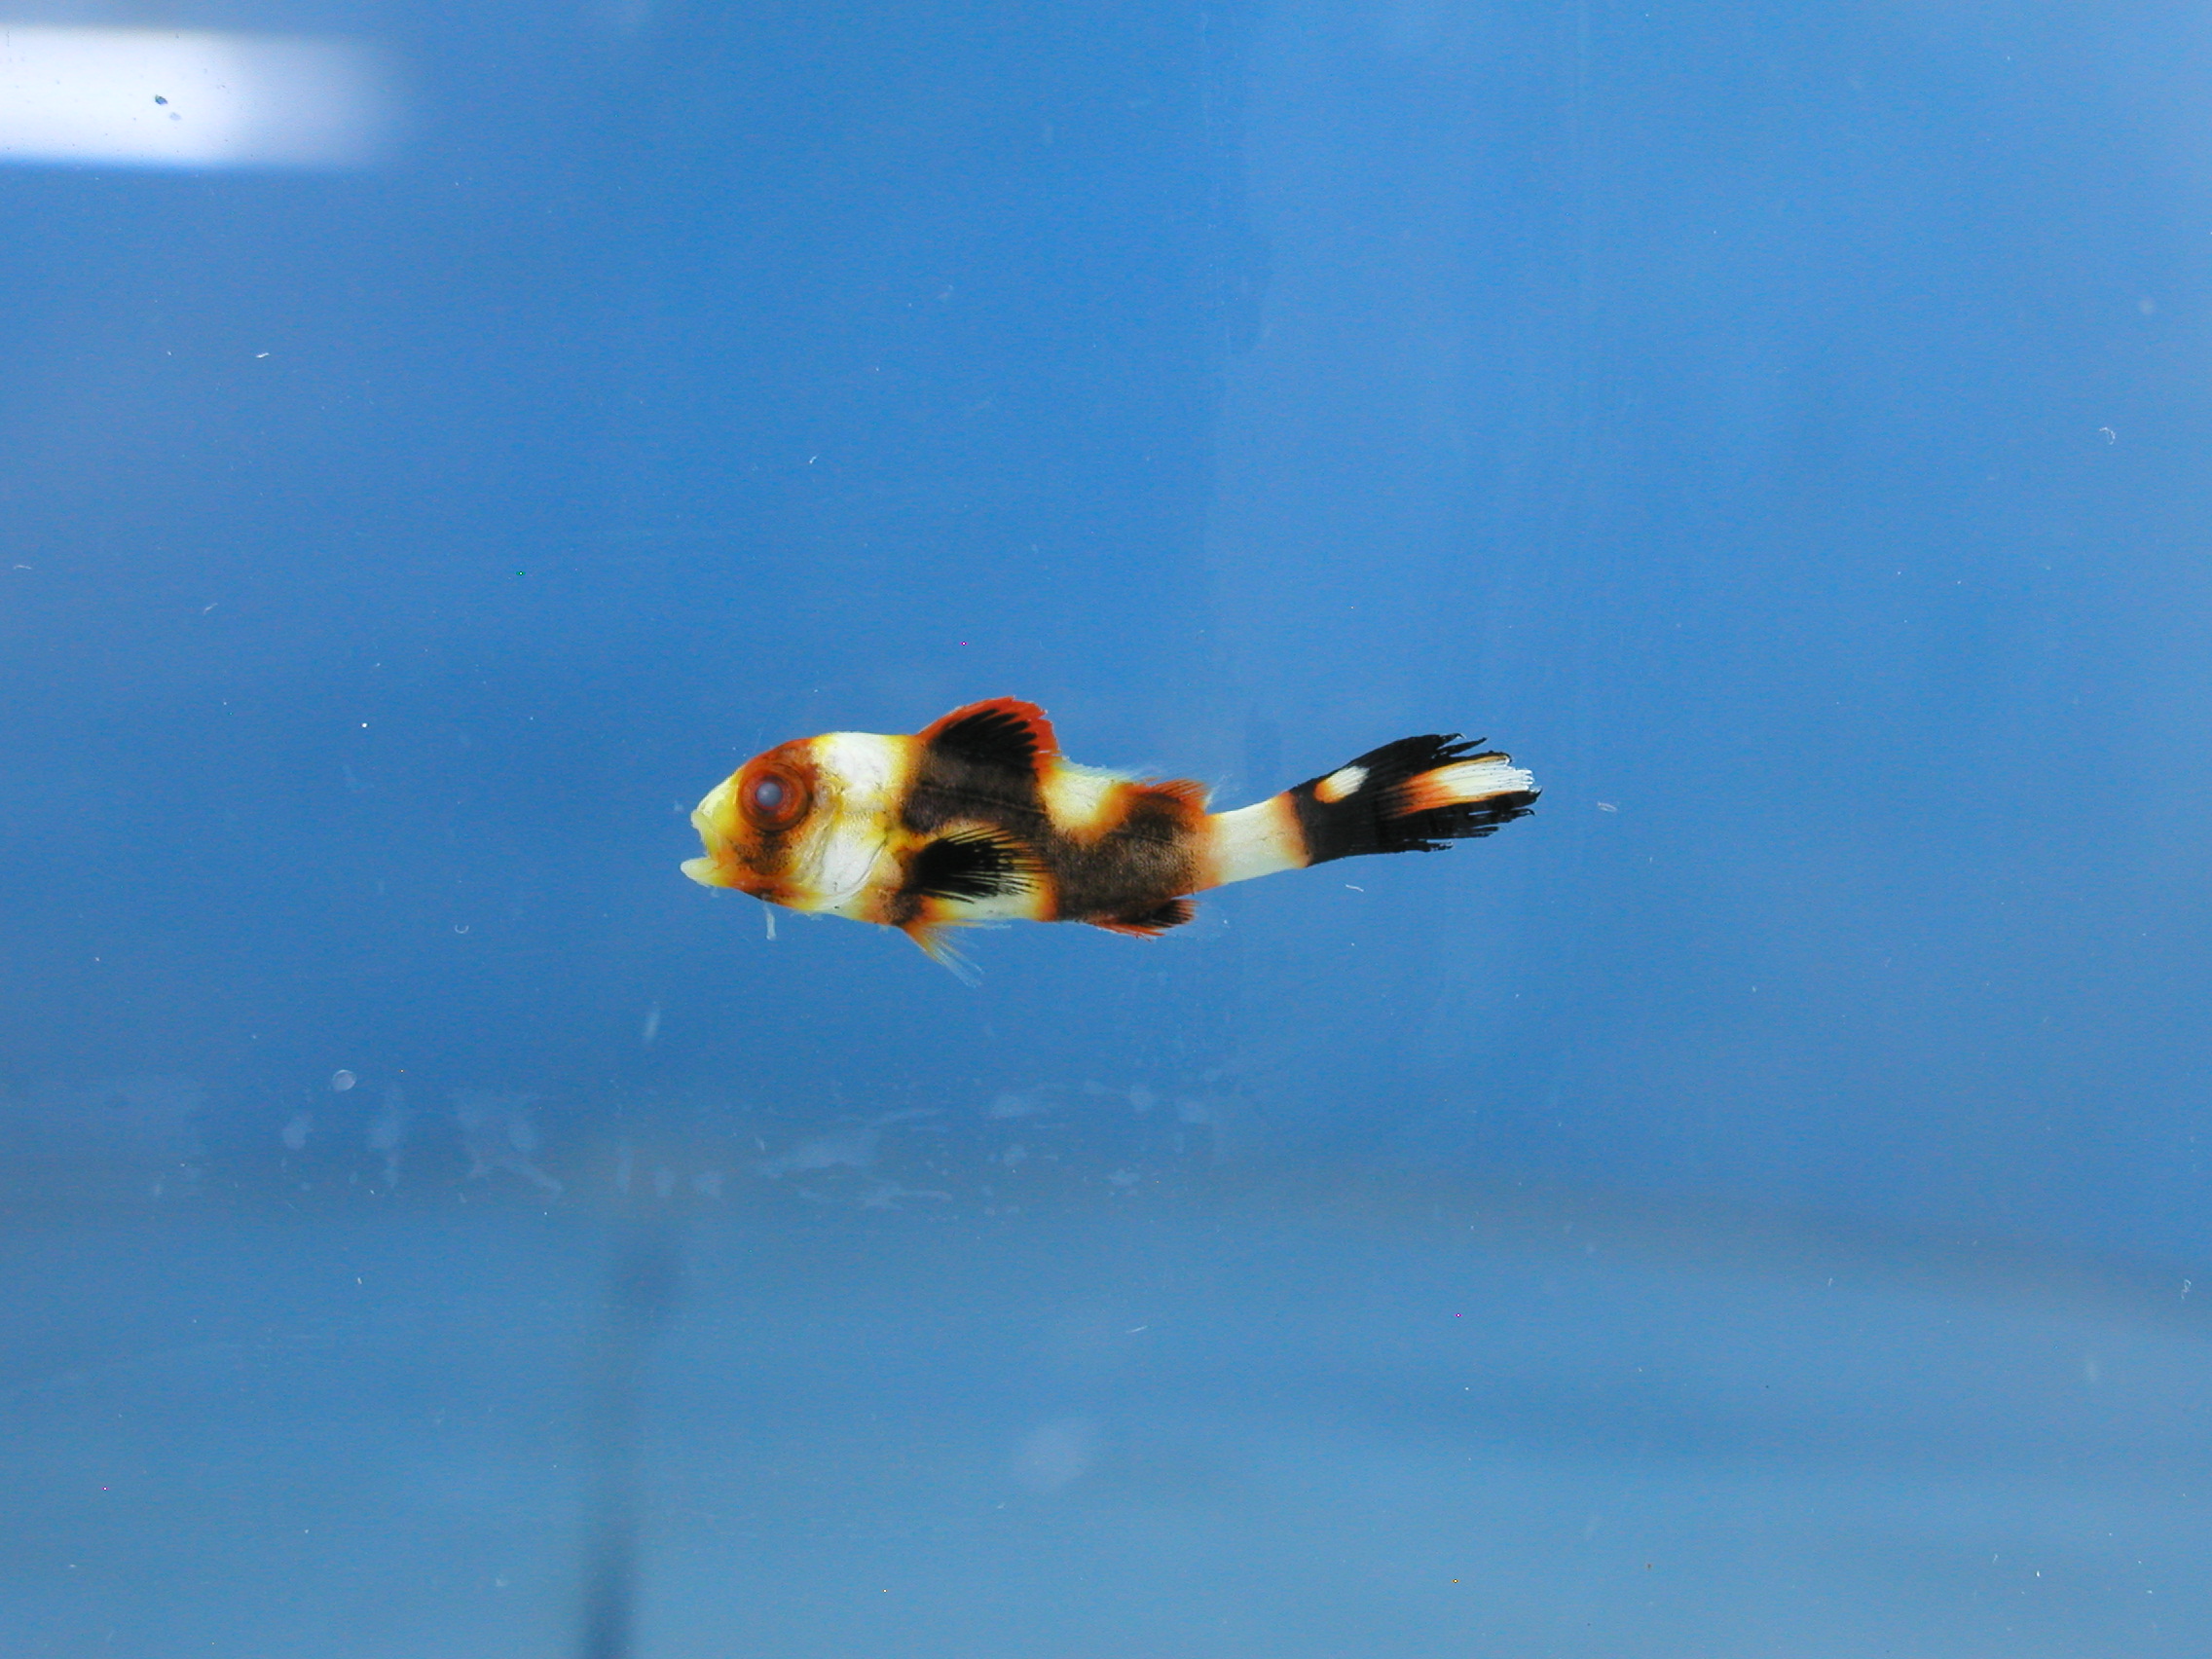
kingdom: Animalia
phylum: Chordata
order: Perciformes
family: Haemulidae
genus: Plectorhinchus
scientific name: Plectorhinchus vittatus
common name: Oriental sweetlips
